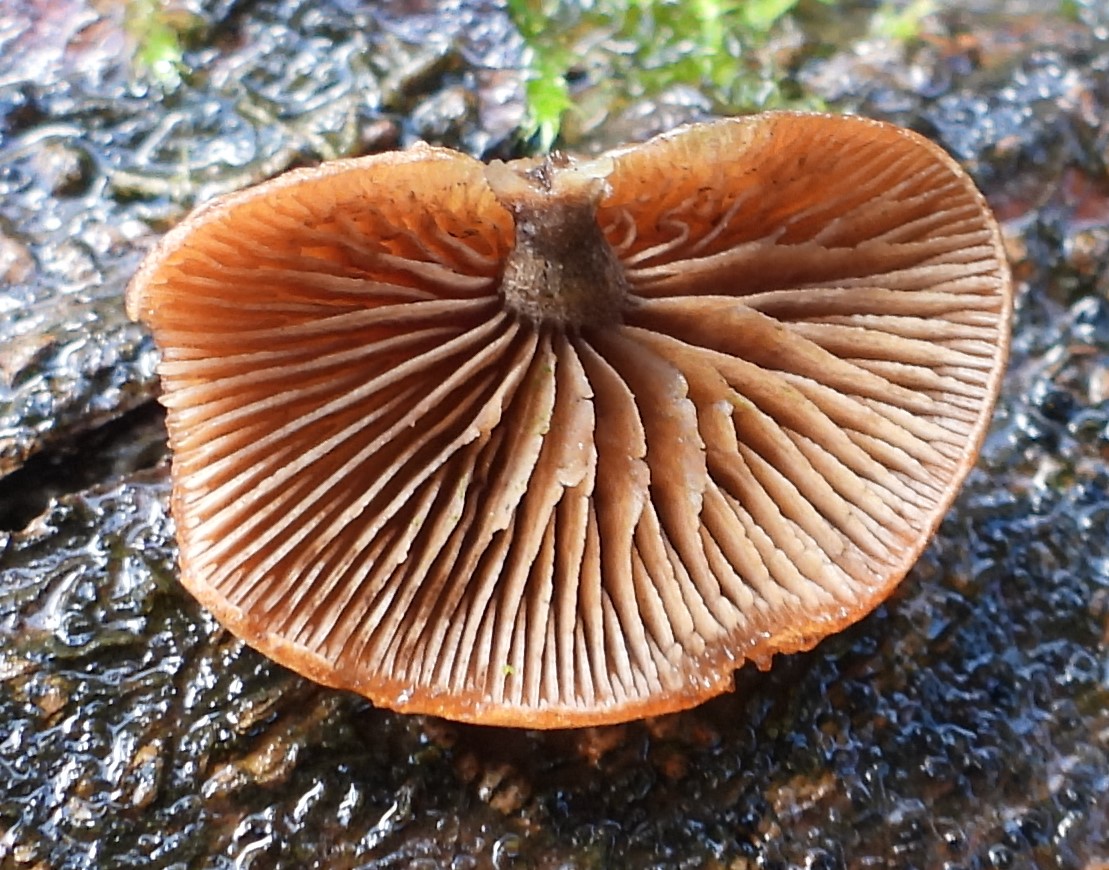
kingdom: Fungi
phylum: Basidiomycota
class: Agaricomycetes
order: Agaricales
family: Strophariaceae
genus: Deconica
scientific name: Deconica horizontalis
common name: ved-stråhat
